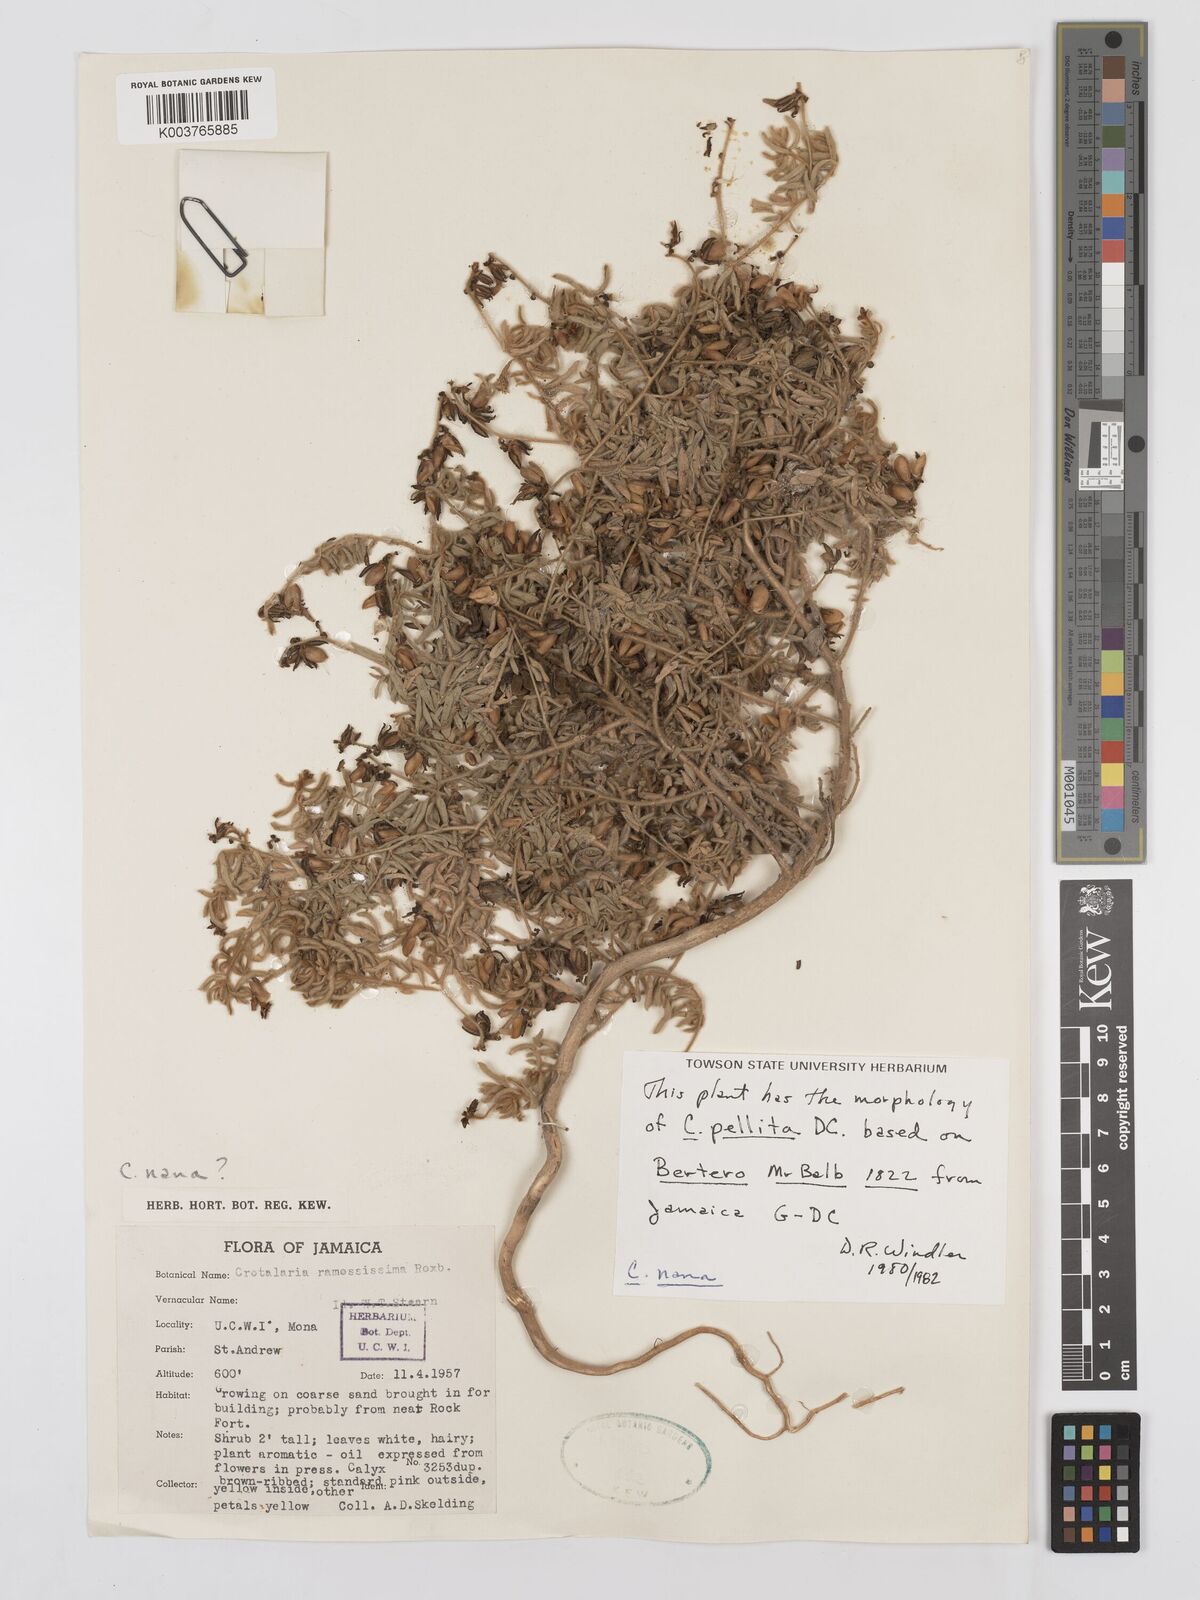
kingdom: Plantae
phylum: Tracheophyta
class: Magnoliopsida
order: Fabales
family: Fabaceae
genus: Crotalaria
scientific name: Crotalaria ramosissima
